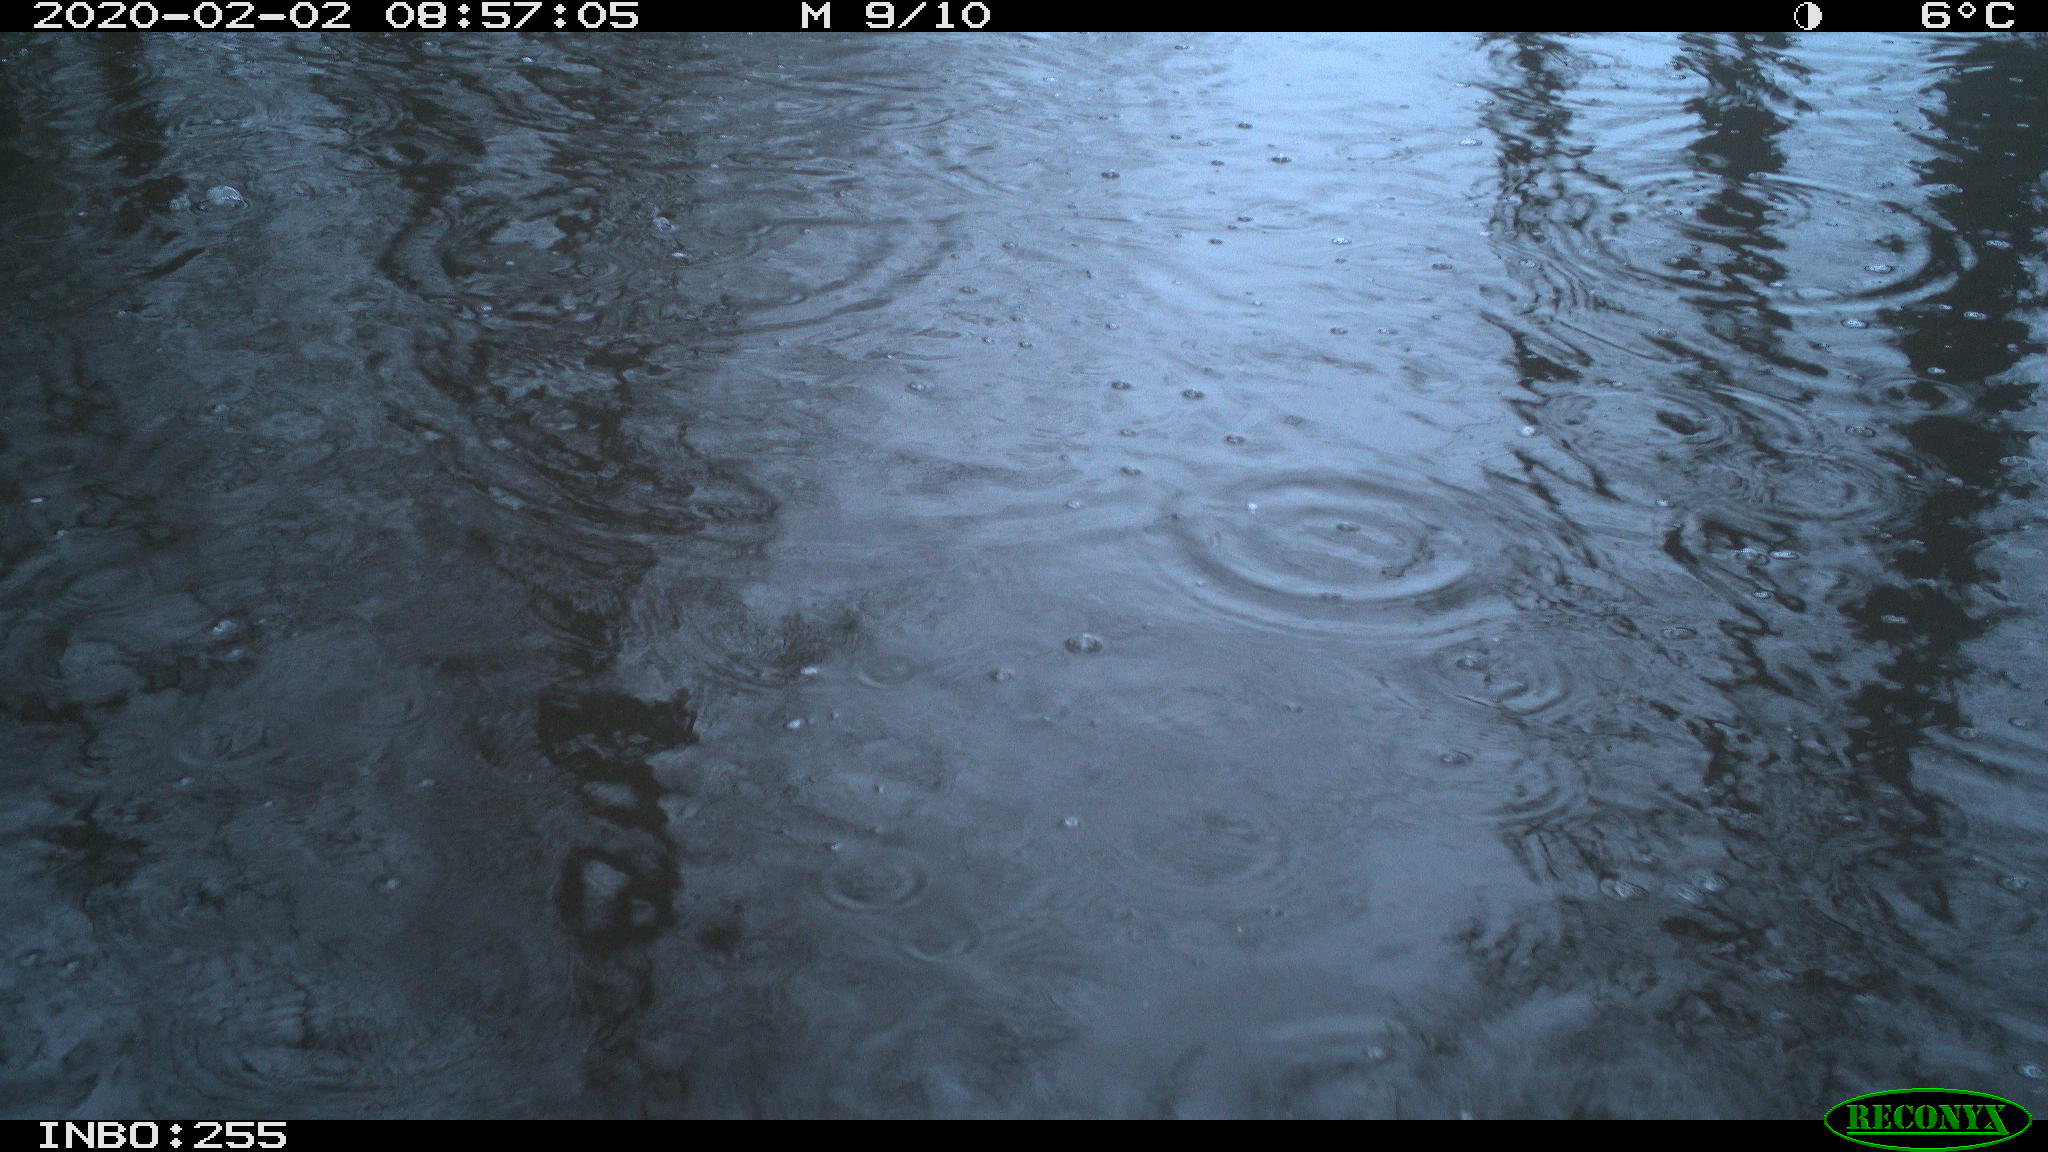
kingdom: Animalia
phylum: Chordata
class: Aves
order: Gruiformes
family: Rallidae
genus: Fulica
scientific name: Fulica atra
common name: Eurasian coot
